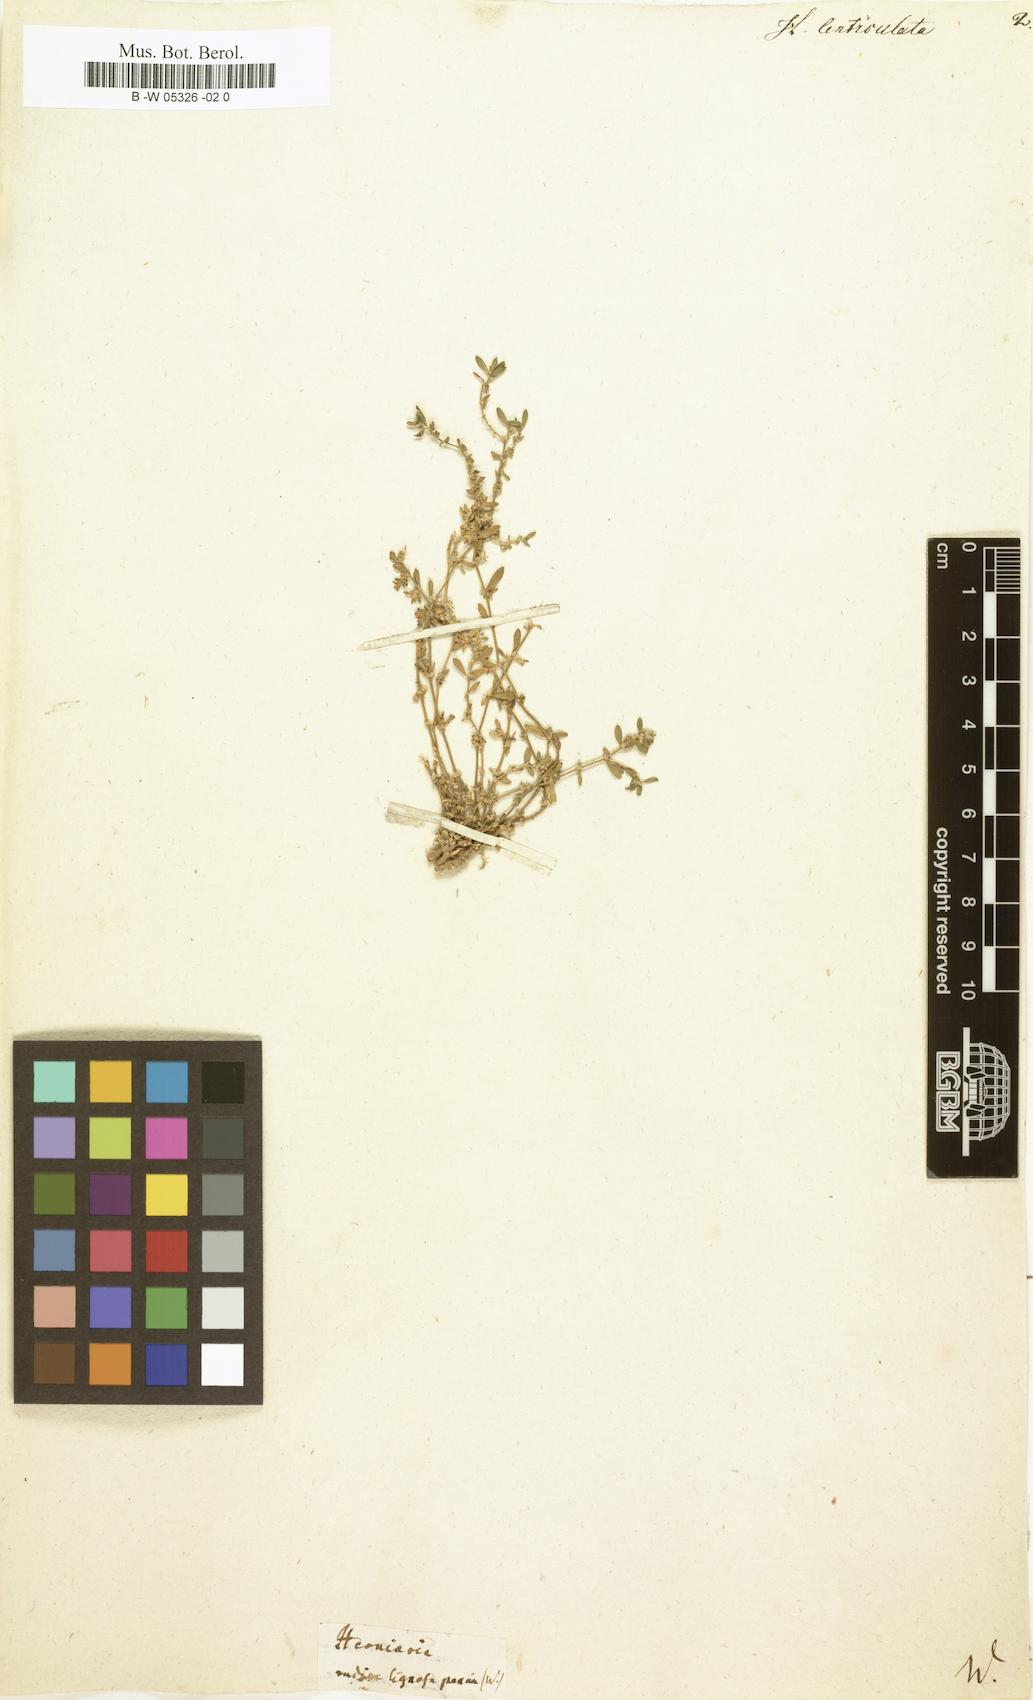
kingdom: Plantae
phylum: Tracheophyta
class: Magnoliopsida
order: Caryophyllales
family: Polygonaceae
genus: Polygonum
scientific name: Polygonum raii
